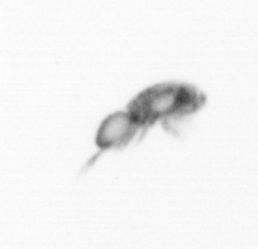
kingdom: Animalia
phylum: Arthropoda
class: Copepoda
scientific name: Copepoda
